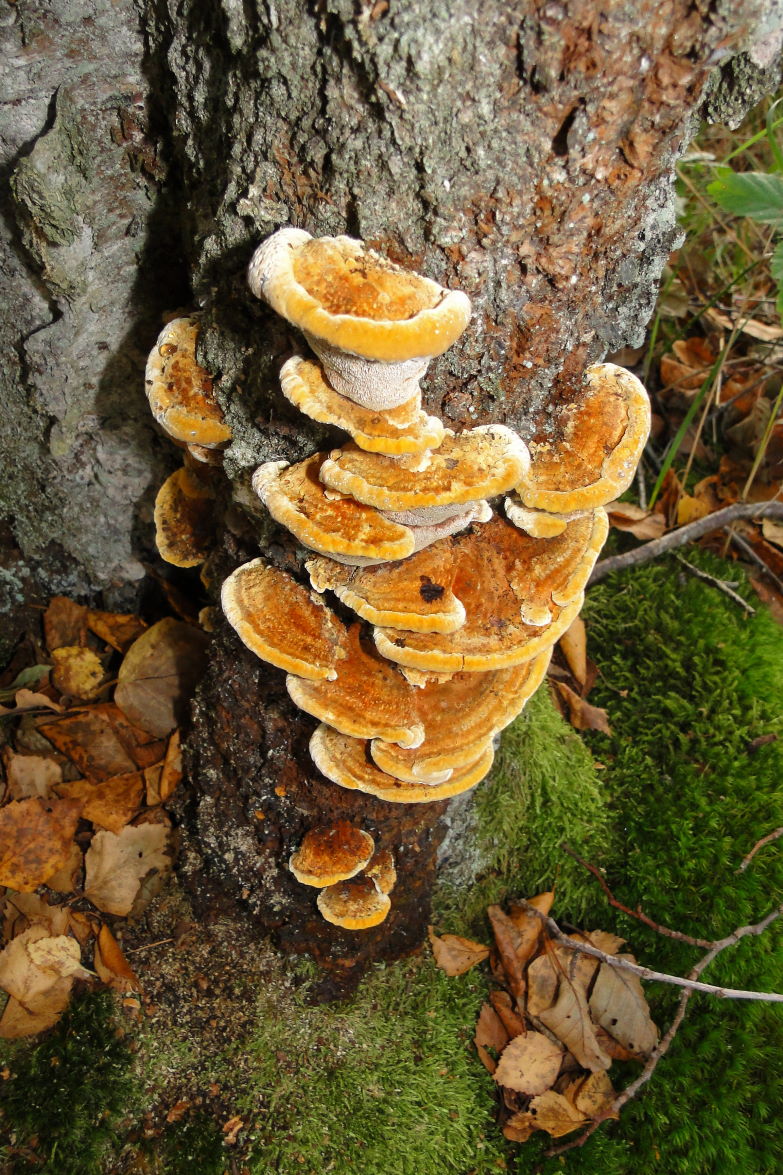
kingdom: Fungi
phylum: Basidiomycota
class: Agaricomycetes
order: Hymenochaetales
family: Hymenochaetaceae
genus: Xanthoporia
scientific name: Xanthoporia radiata
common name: elle-spejlporesvamp
